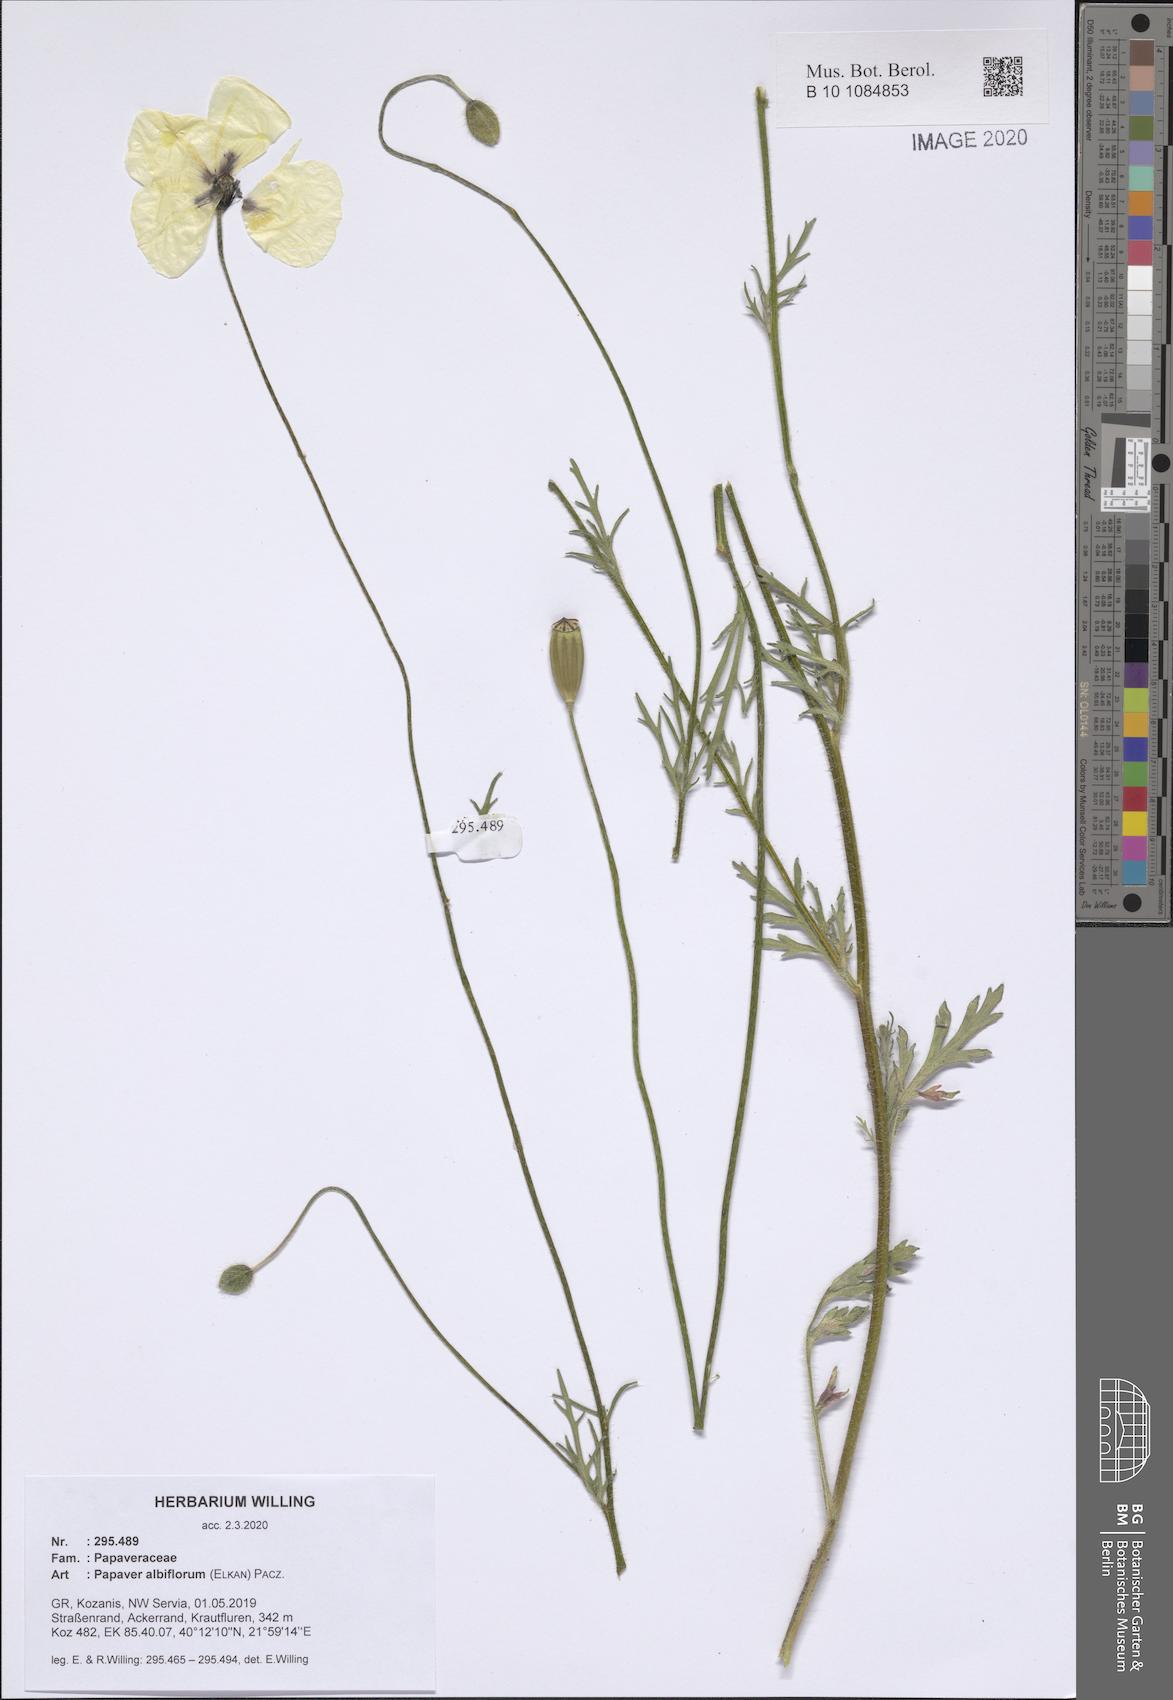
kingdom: Plantae
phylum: Tracheophyta
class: Magnoliopsida
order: Ranunculales
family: Papaveraceae
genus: Papaver
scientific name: Papaver albiflorum
